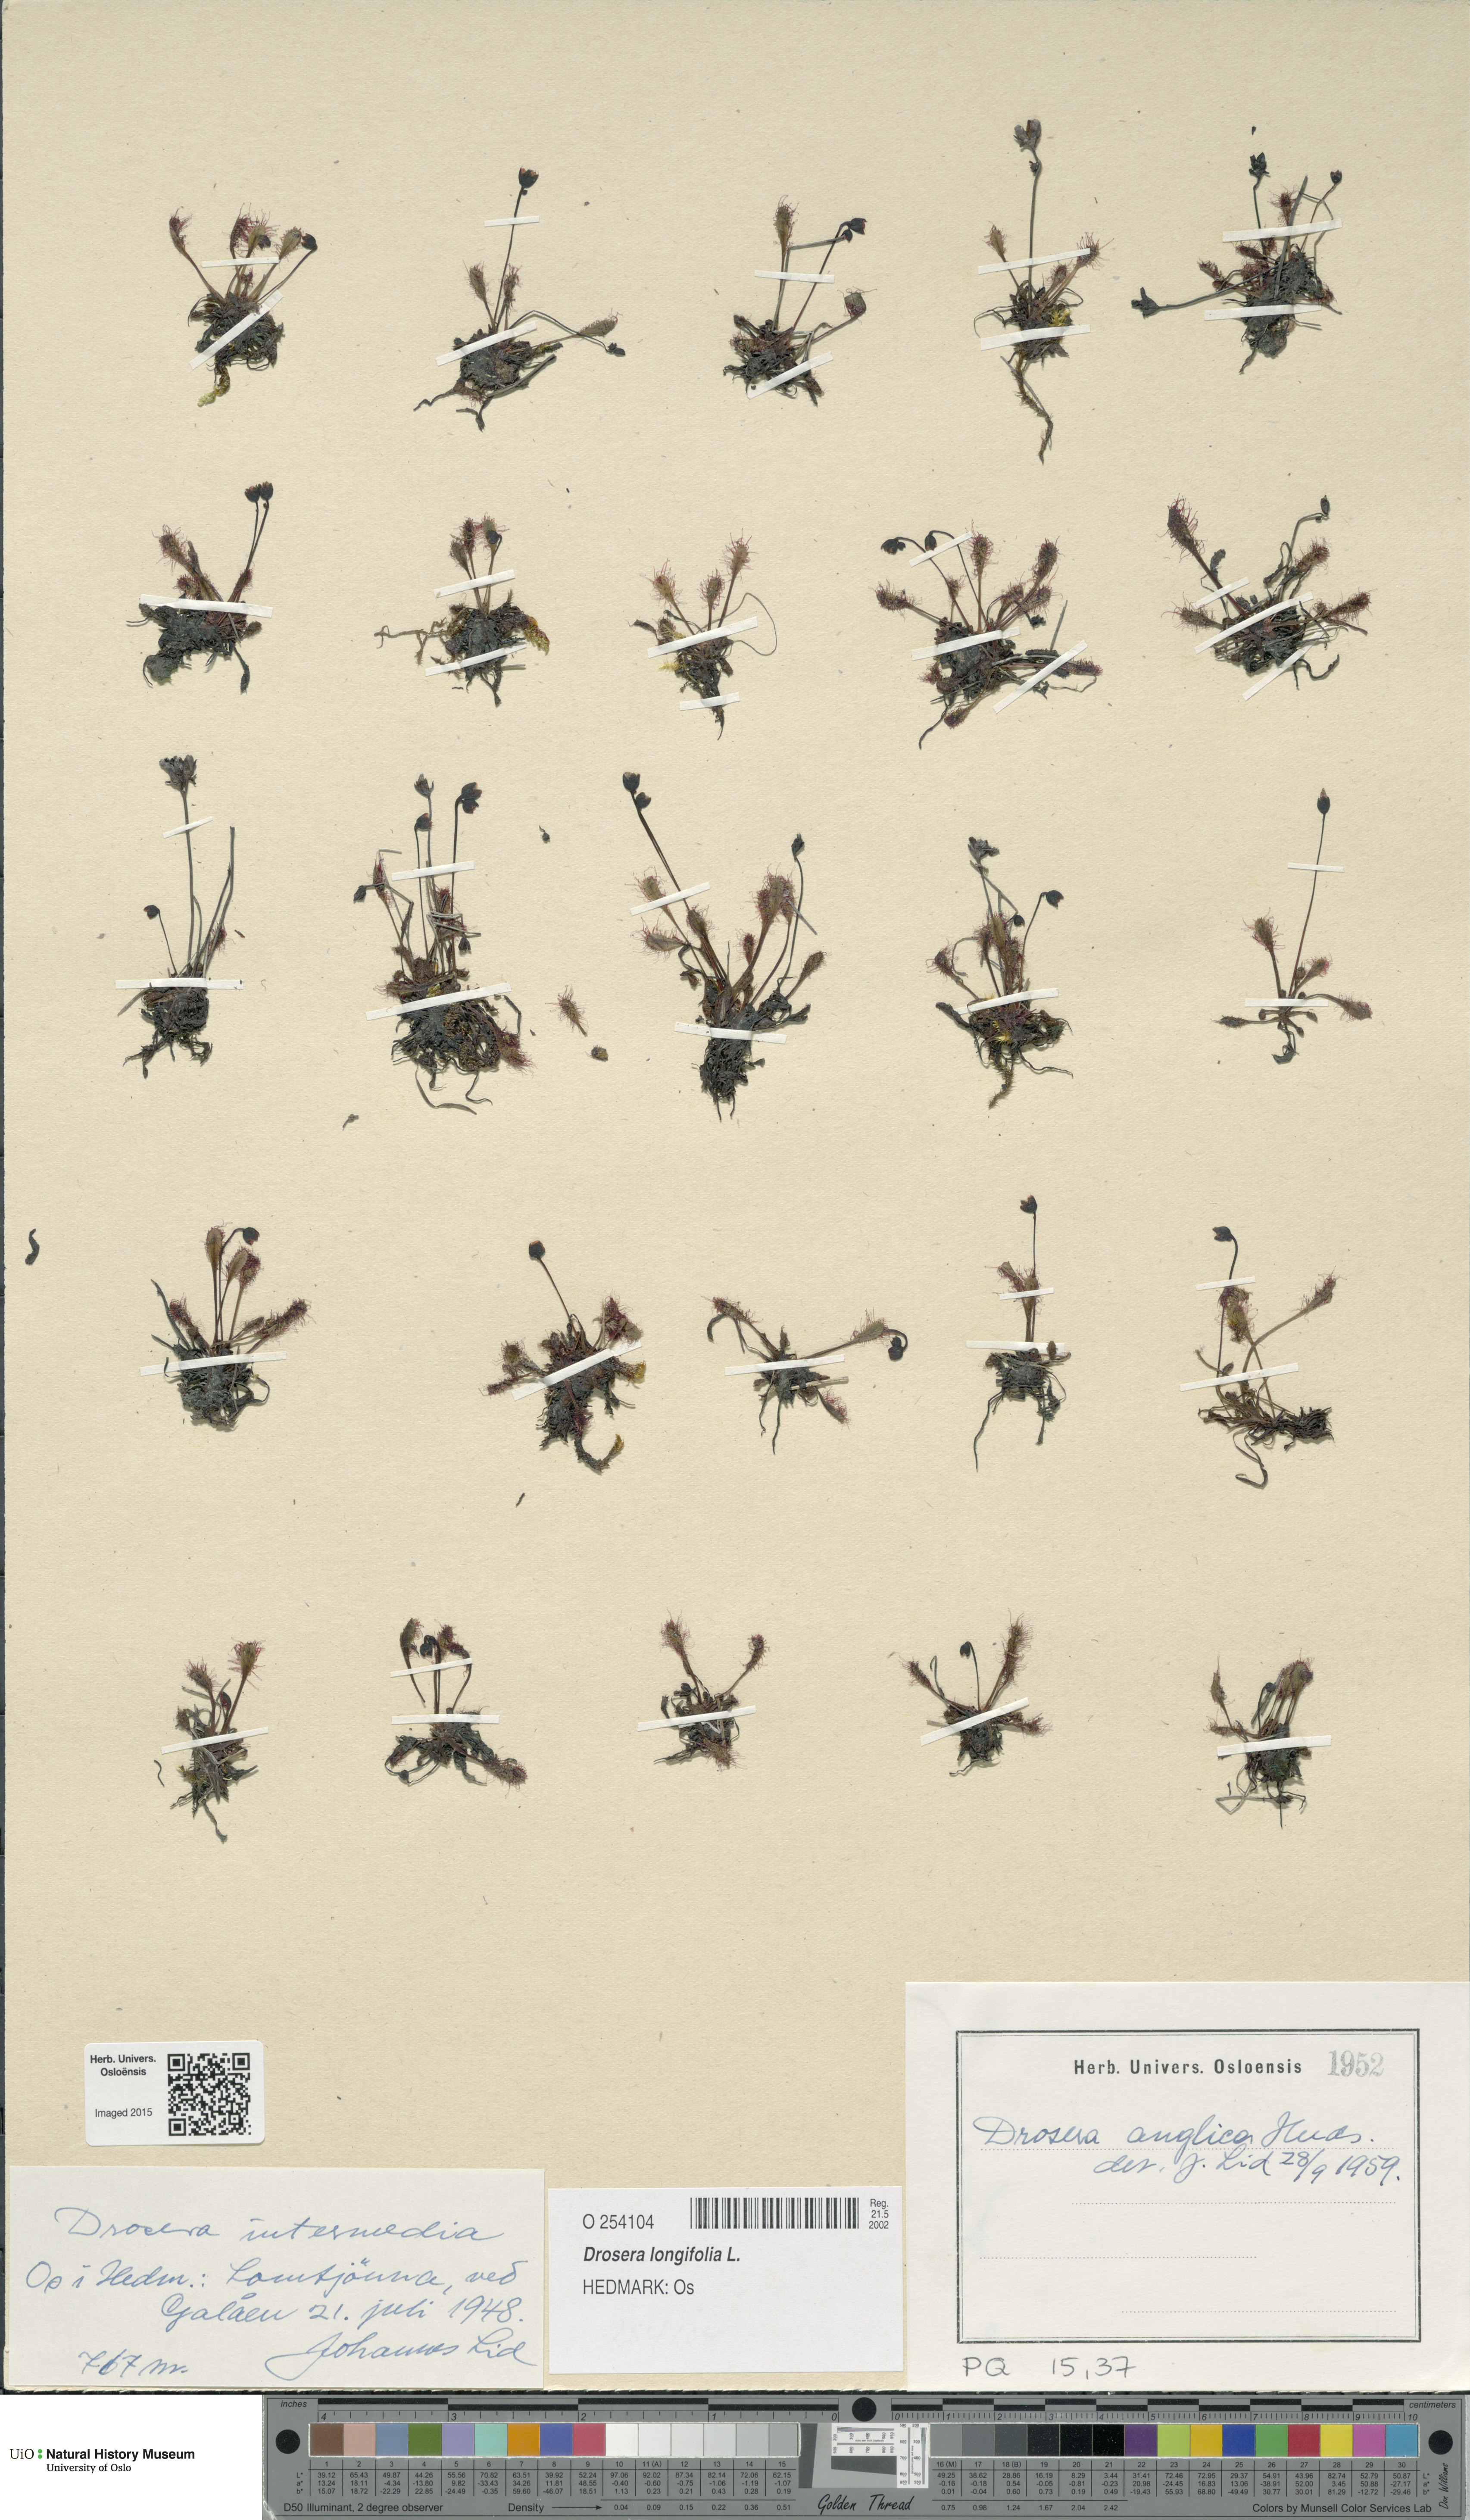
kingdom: Plantae
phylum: Tracheophyta
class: Magnoliopsida
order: Caryophyllales
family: Droseraceae
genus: Drosera
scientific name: Drosera anglica
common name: Great sundew
